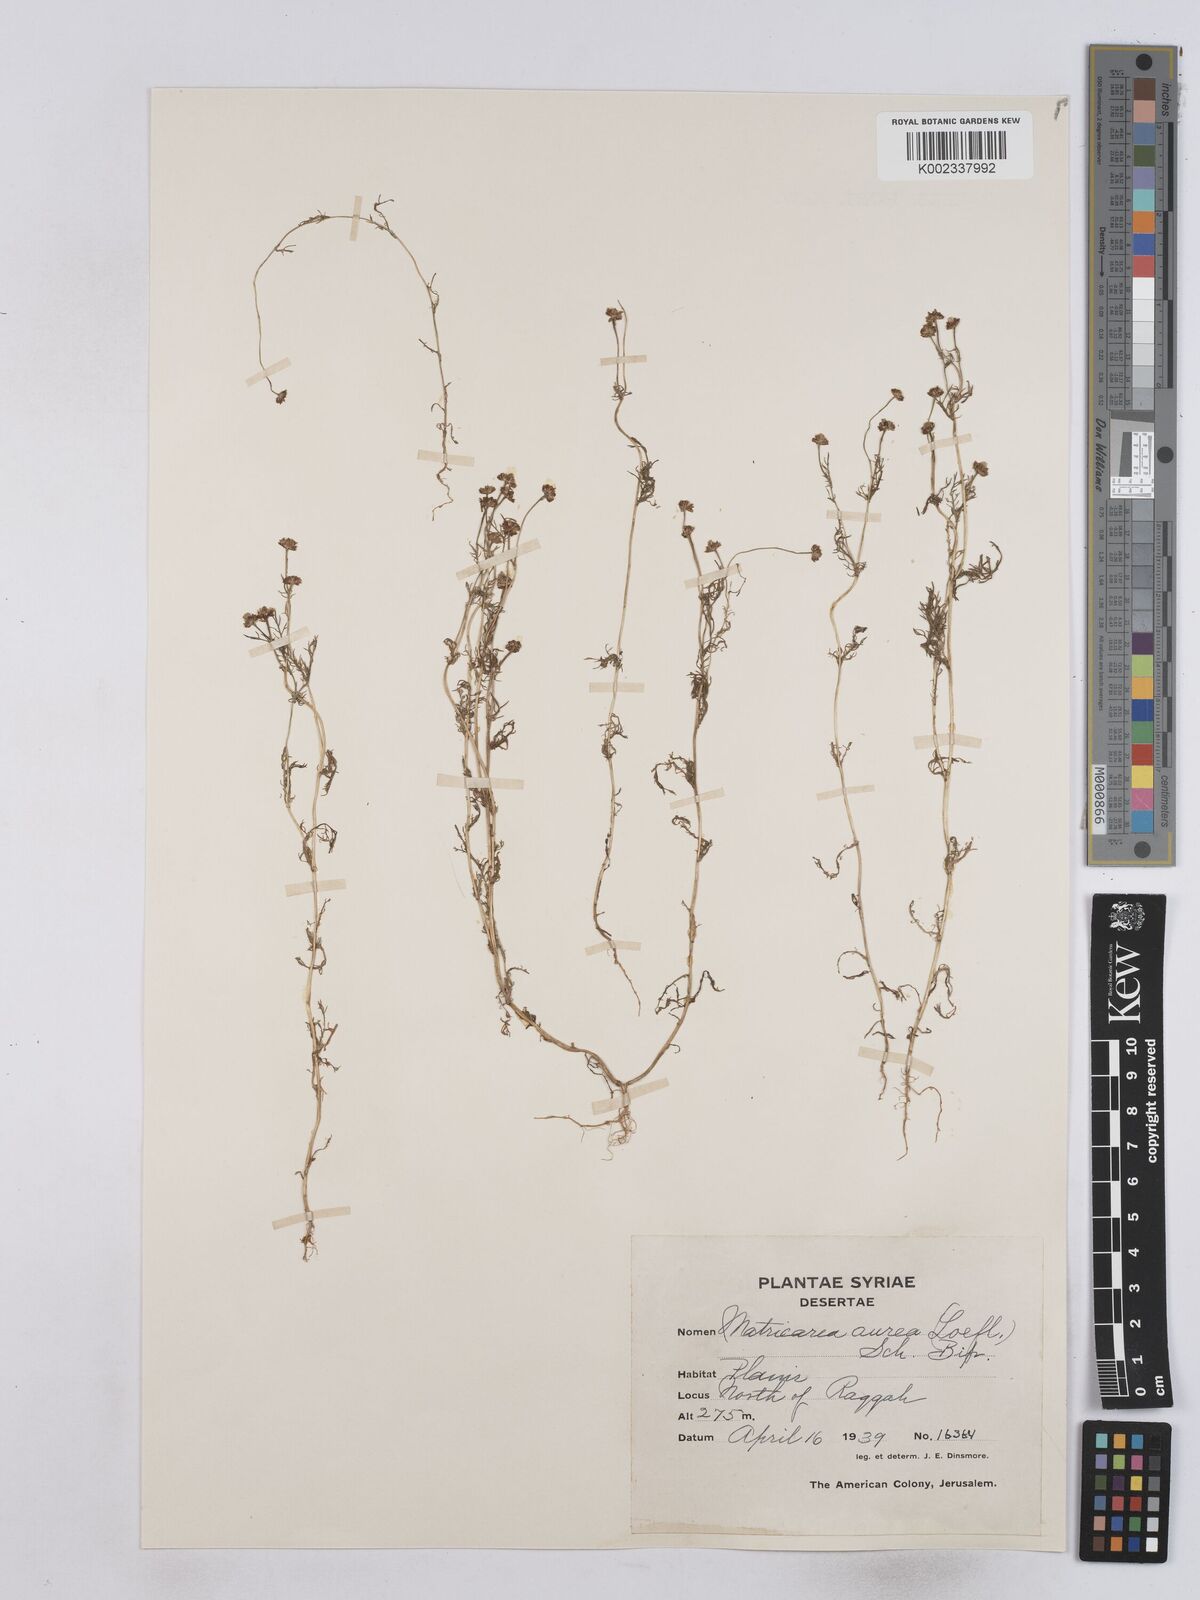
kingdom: Plantae
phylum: Tracheophyta
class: Magnoliopsida
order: Asterales
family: Asteraceae
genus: Matricaria
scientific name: Matricaria aurea
